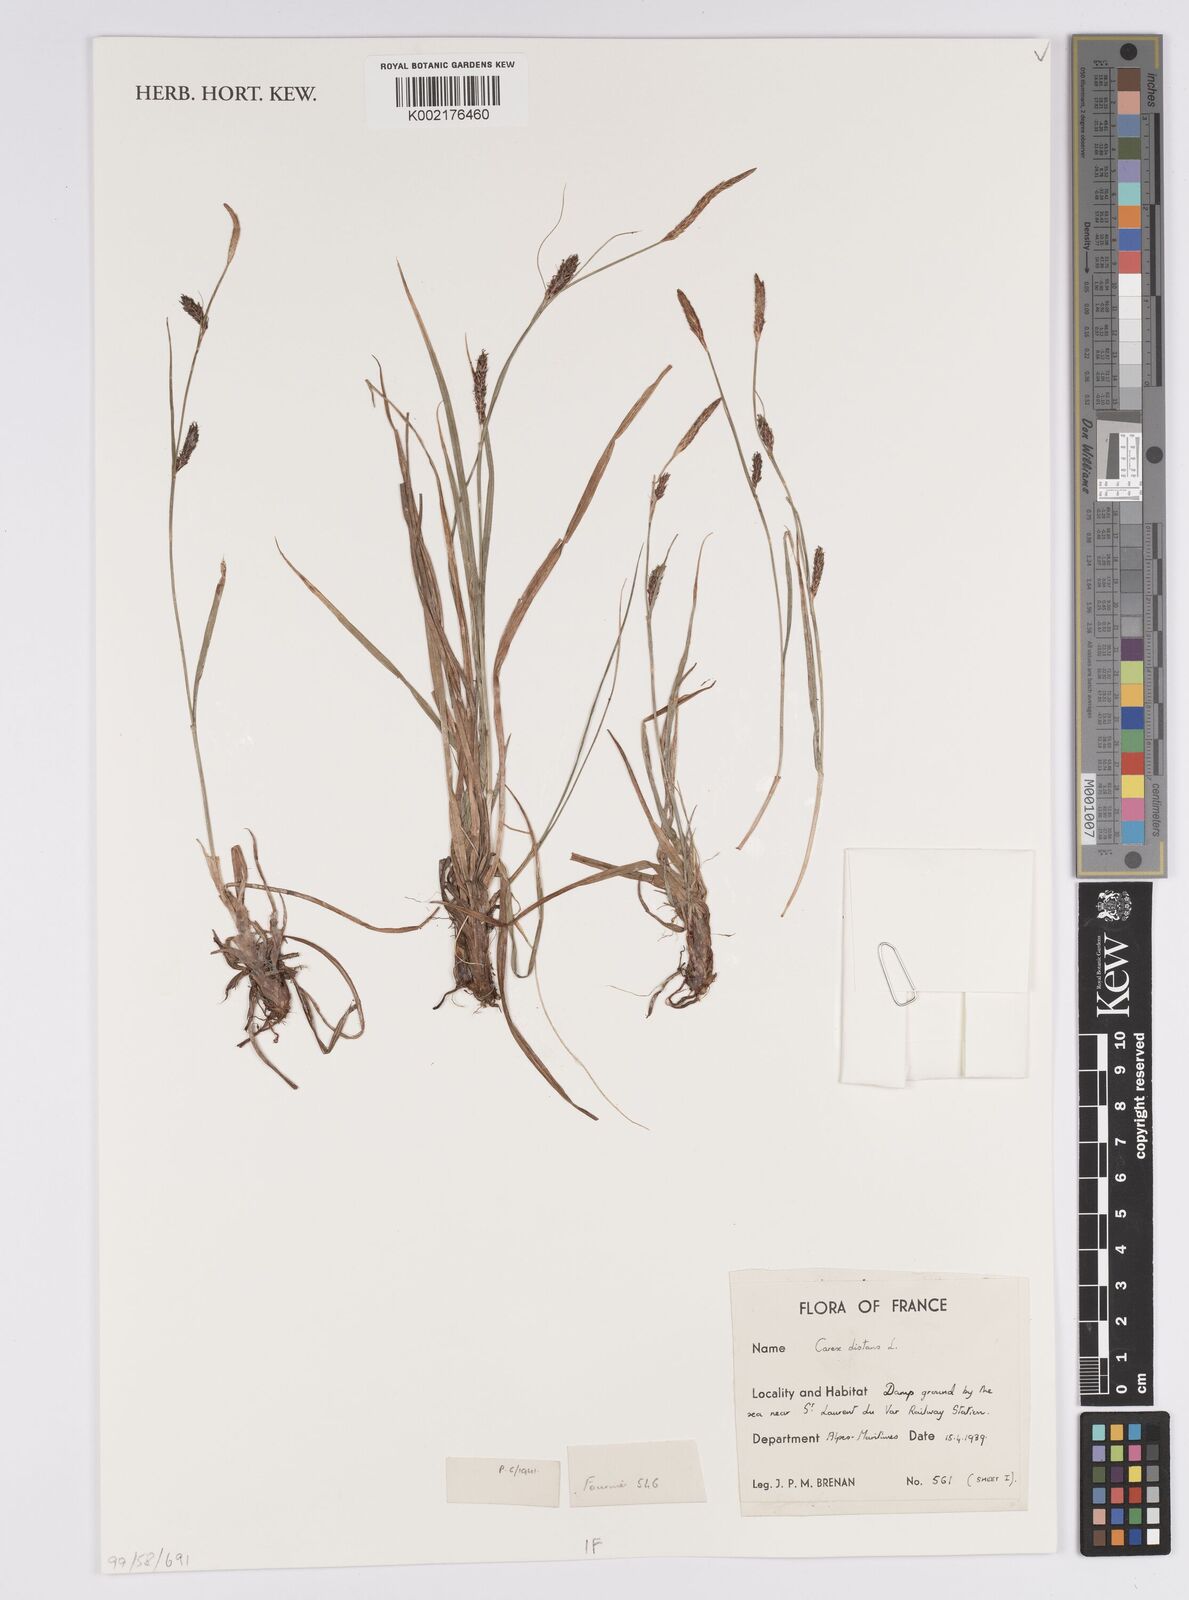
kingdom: Plantae
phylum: Tracheophyta
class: Liliopsida
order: Poales
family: Cyperaceae
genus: Carex
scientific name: Carex distans
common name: Distant sedge
